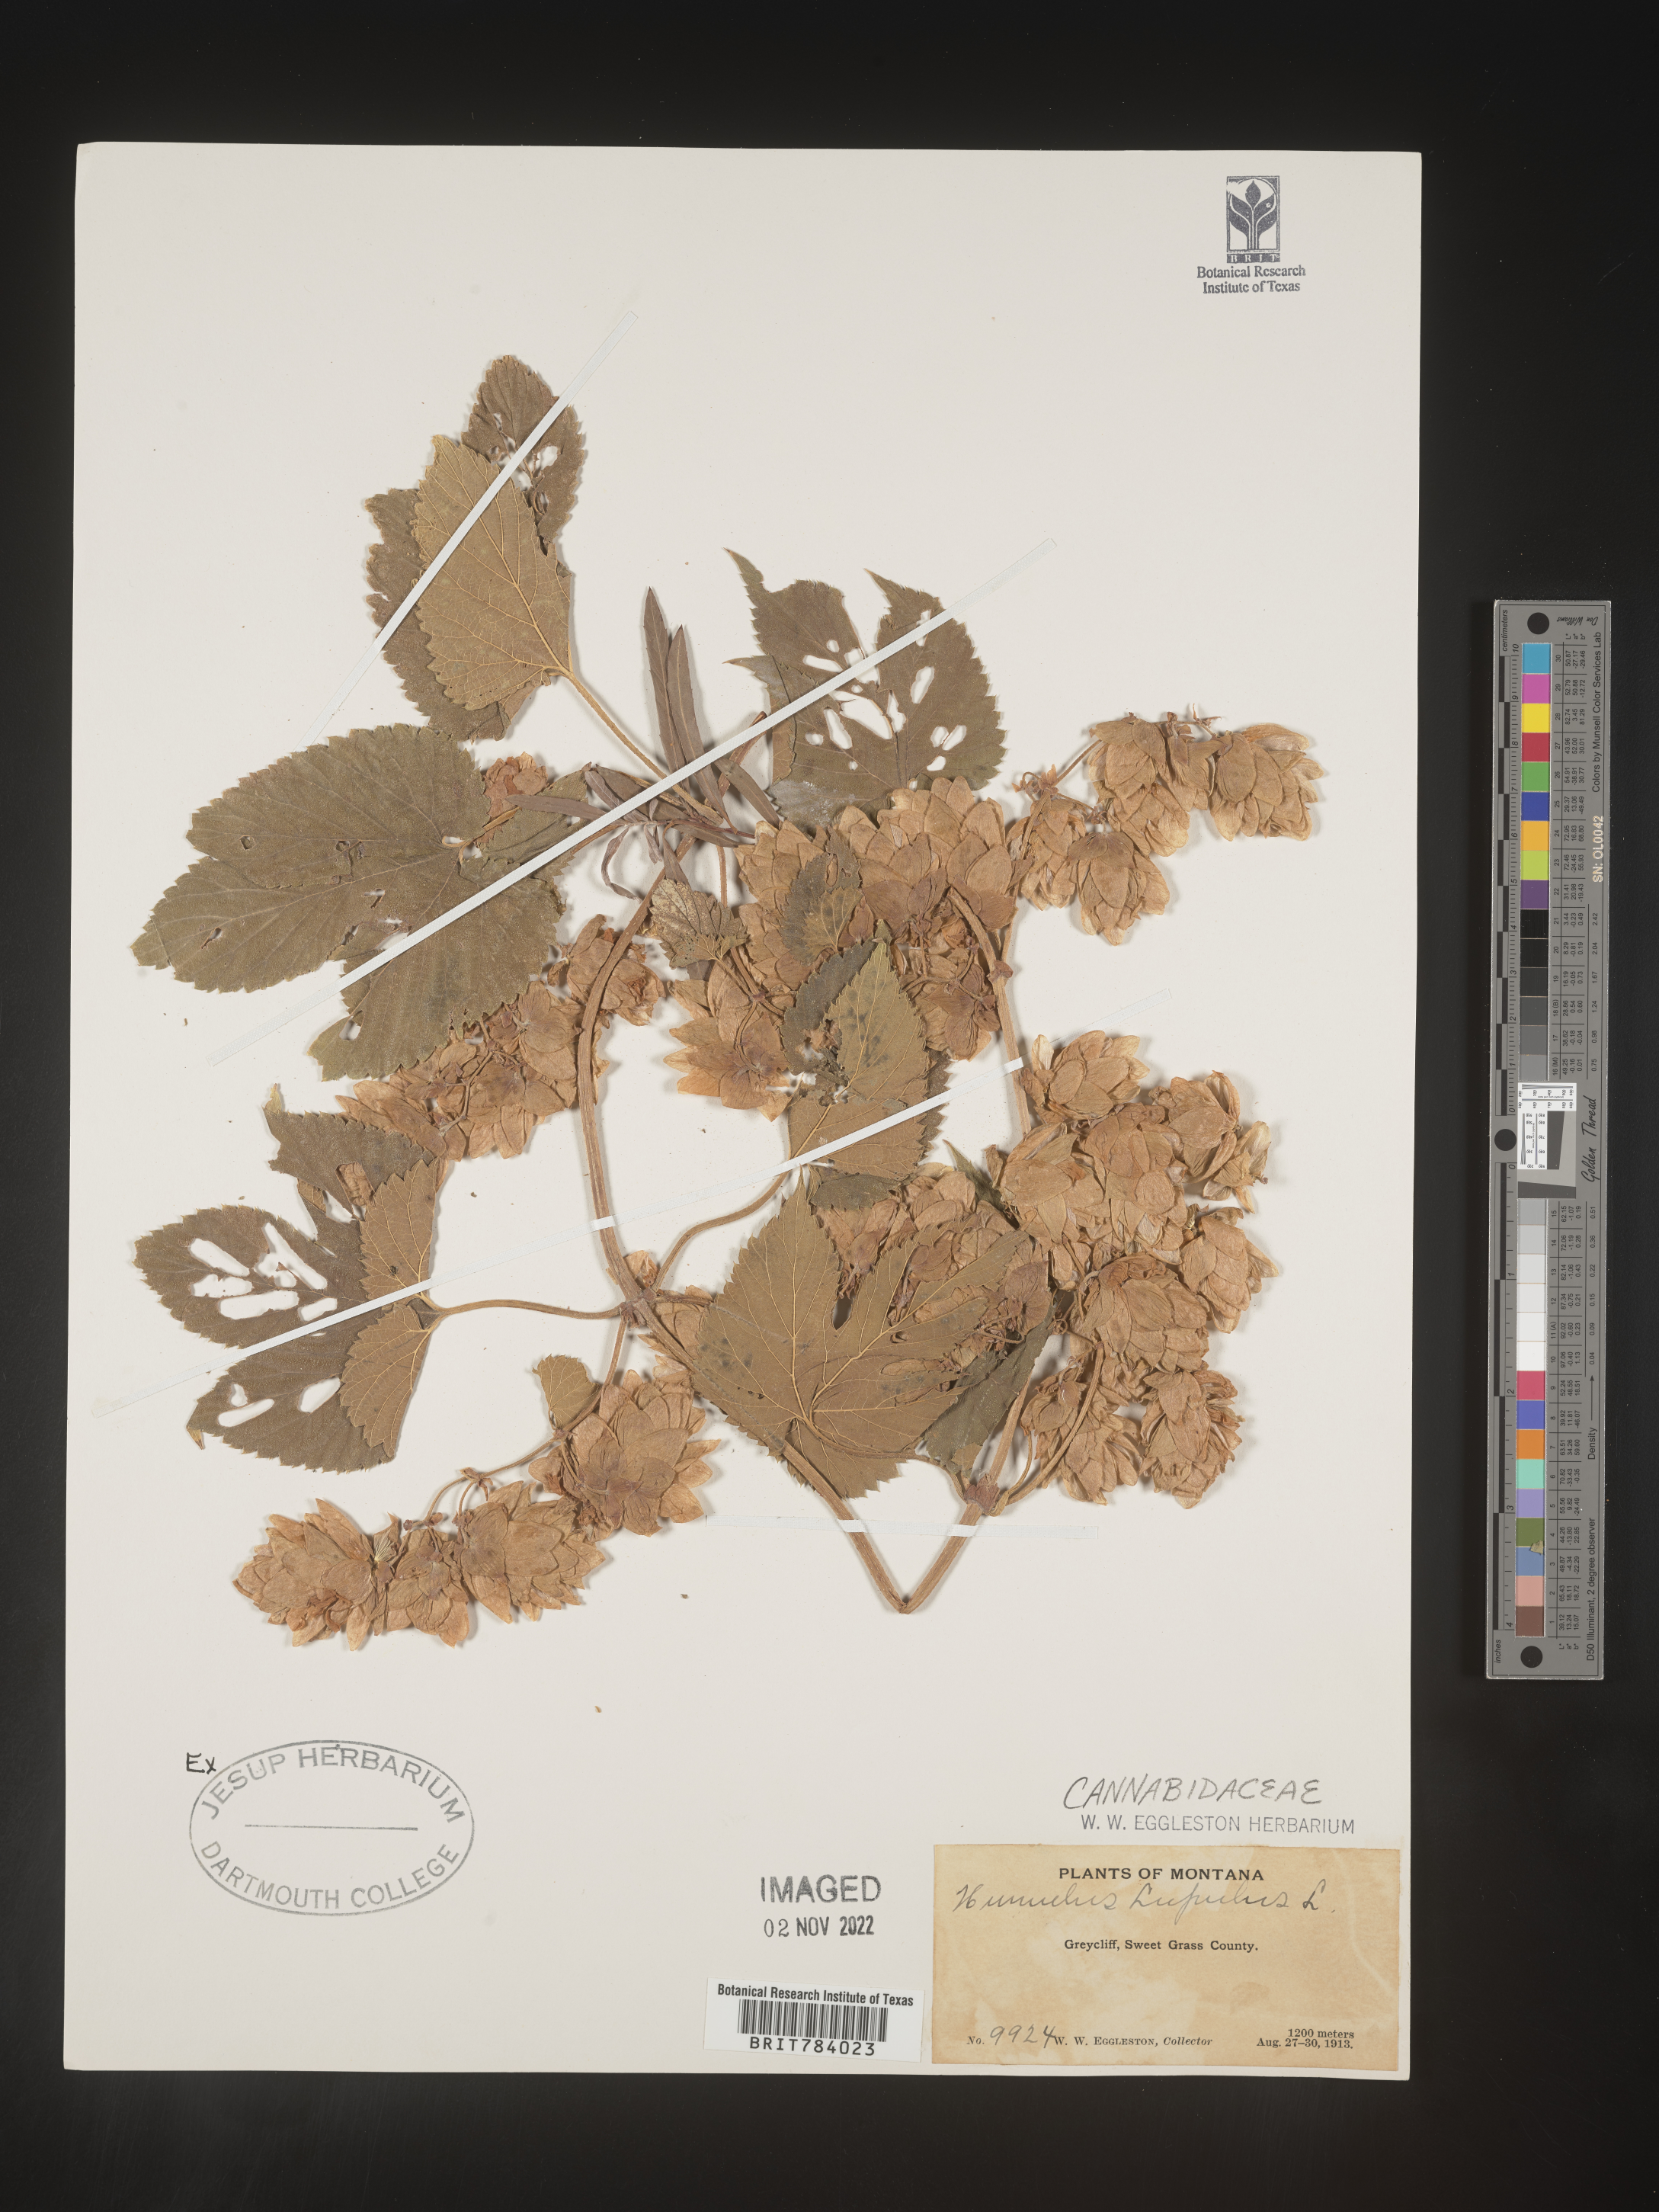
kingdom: Plantae
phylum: Tracheophyta
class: Magnoliopsida
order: Rosales
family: Cannabaceae
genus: Humulus
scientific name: Humulus lupulus
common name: Hop
